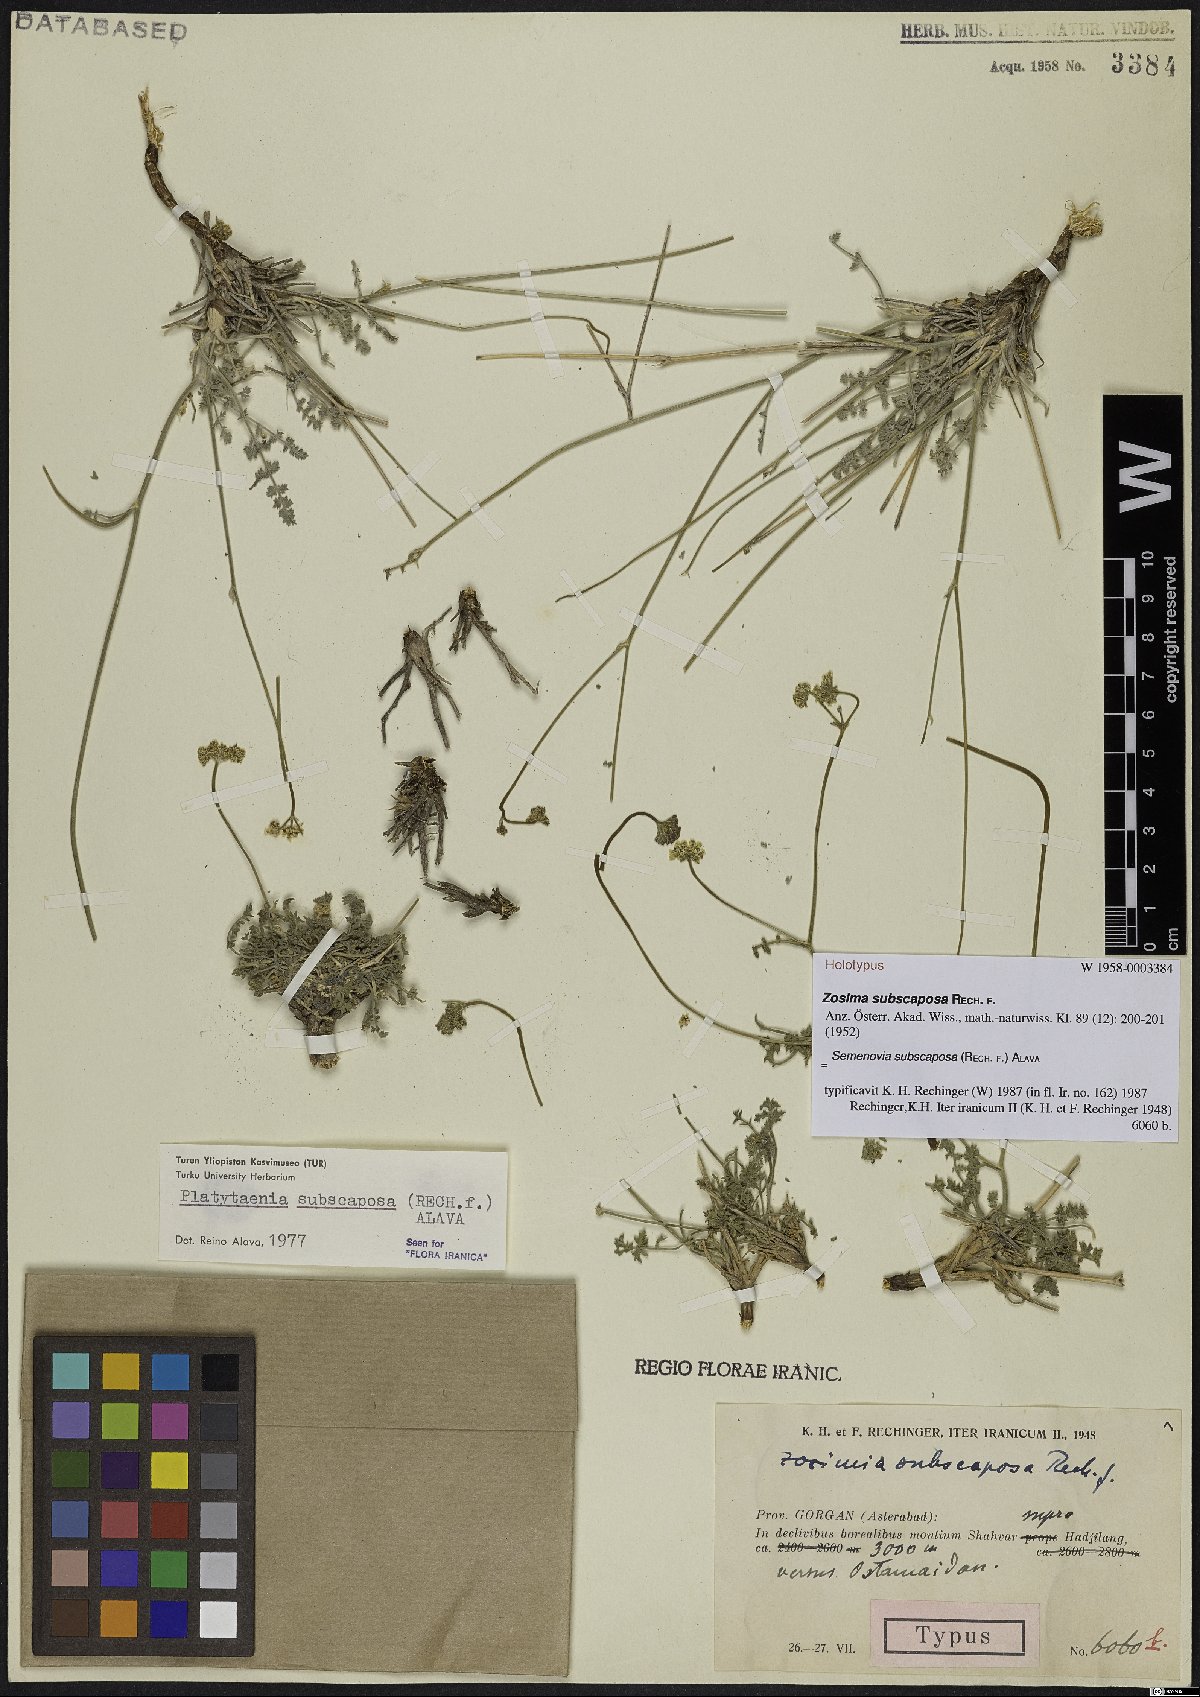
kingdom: Plantae
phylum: Tracheophyta
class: Magnoliopsida
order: Apiales
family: Apiaceae
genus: Semenovia
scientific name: Semenovia subscaposa
